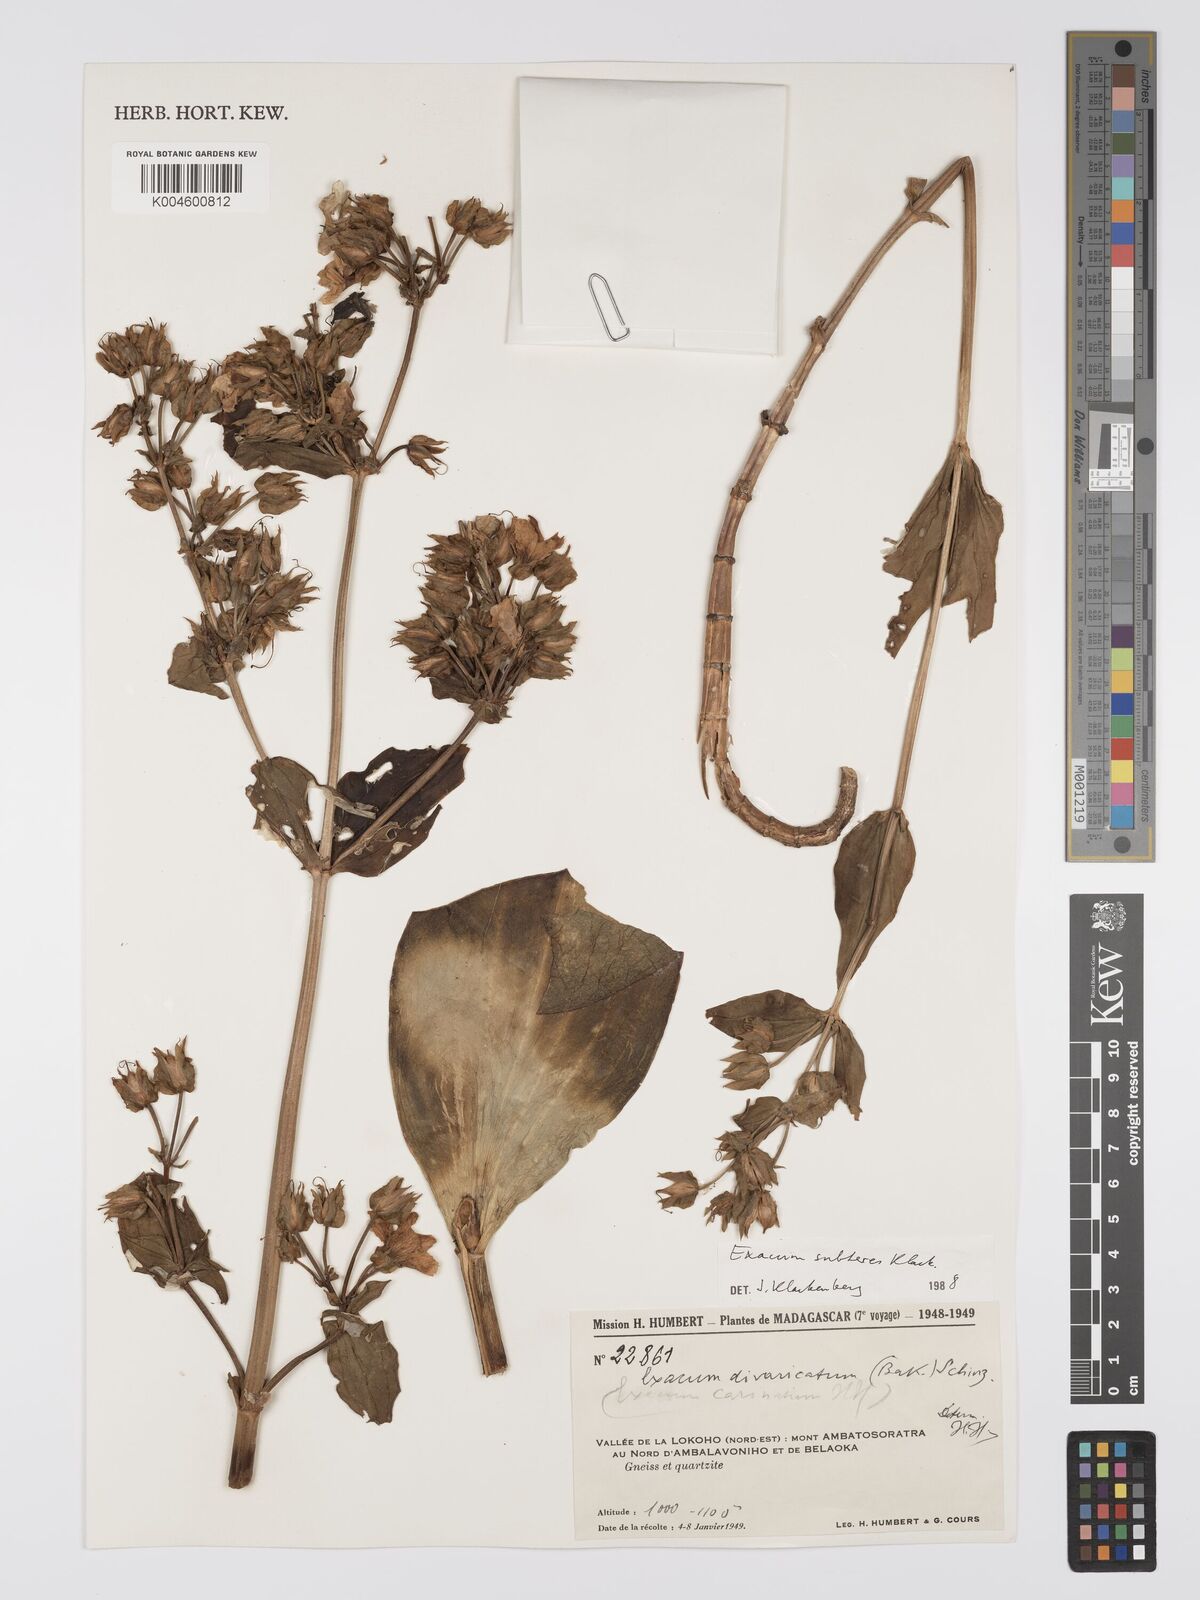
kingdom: Plantae
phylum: Tracheophyta
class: Magnoliopsida
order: Gentianales
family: Gentianaceae
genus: Exacum
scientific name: Exacum subteres
